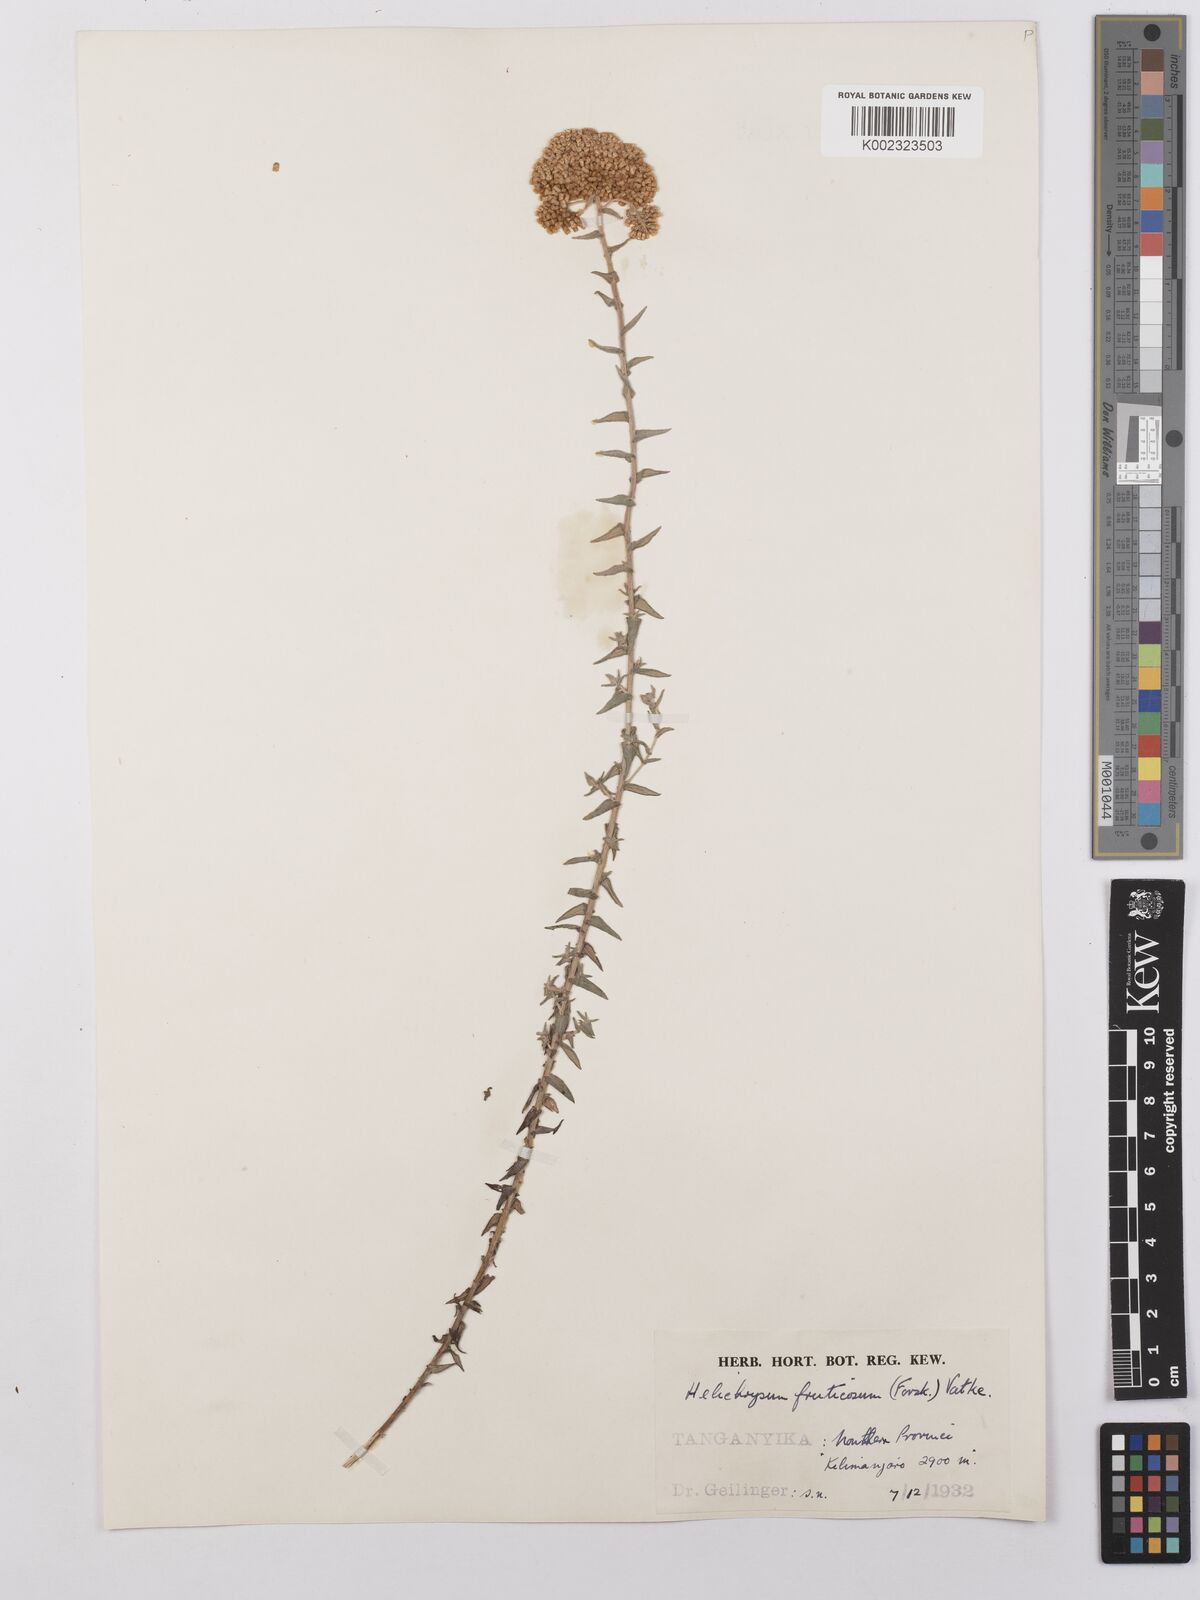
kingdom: Plantae
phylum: Tracheophyta
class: Magnoliopsida
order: Asterales
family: Asteraceae
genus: Helichrysum
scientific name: Helichrysum forskahlii
